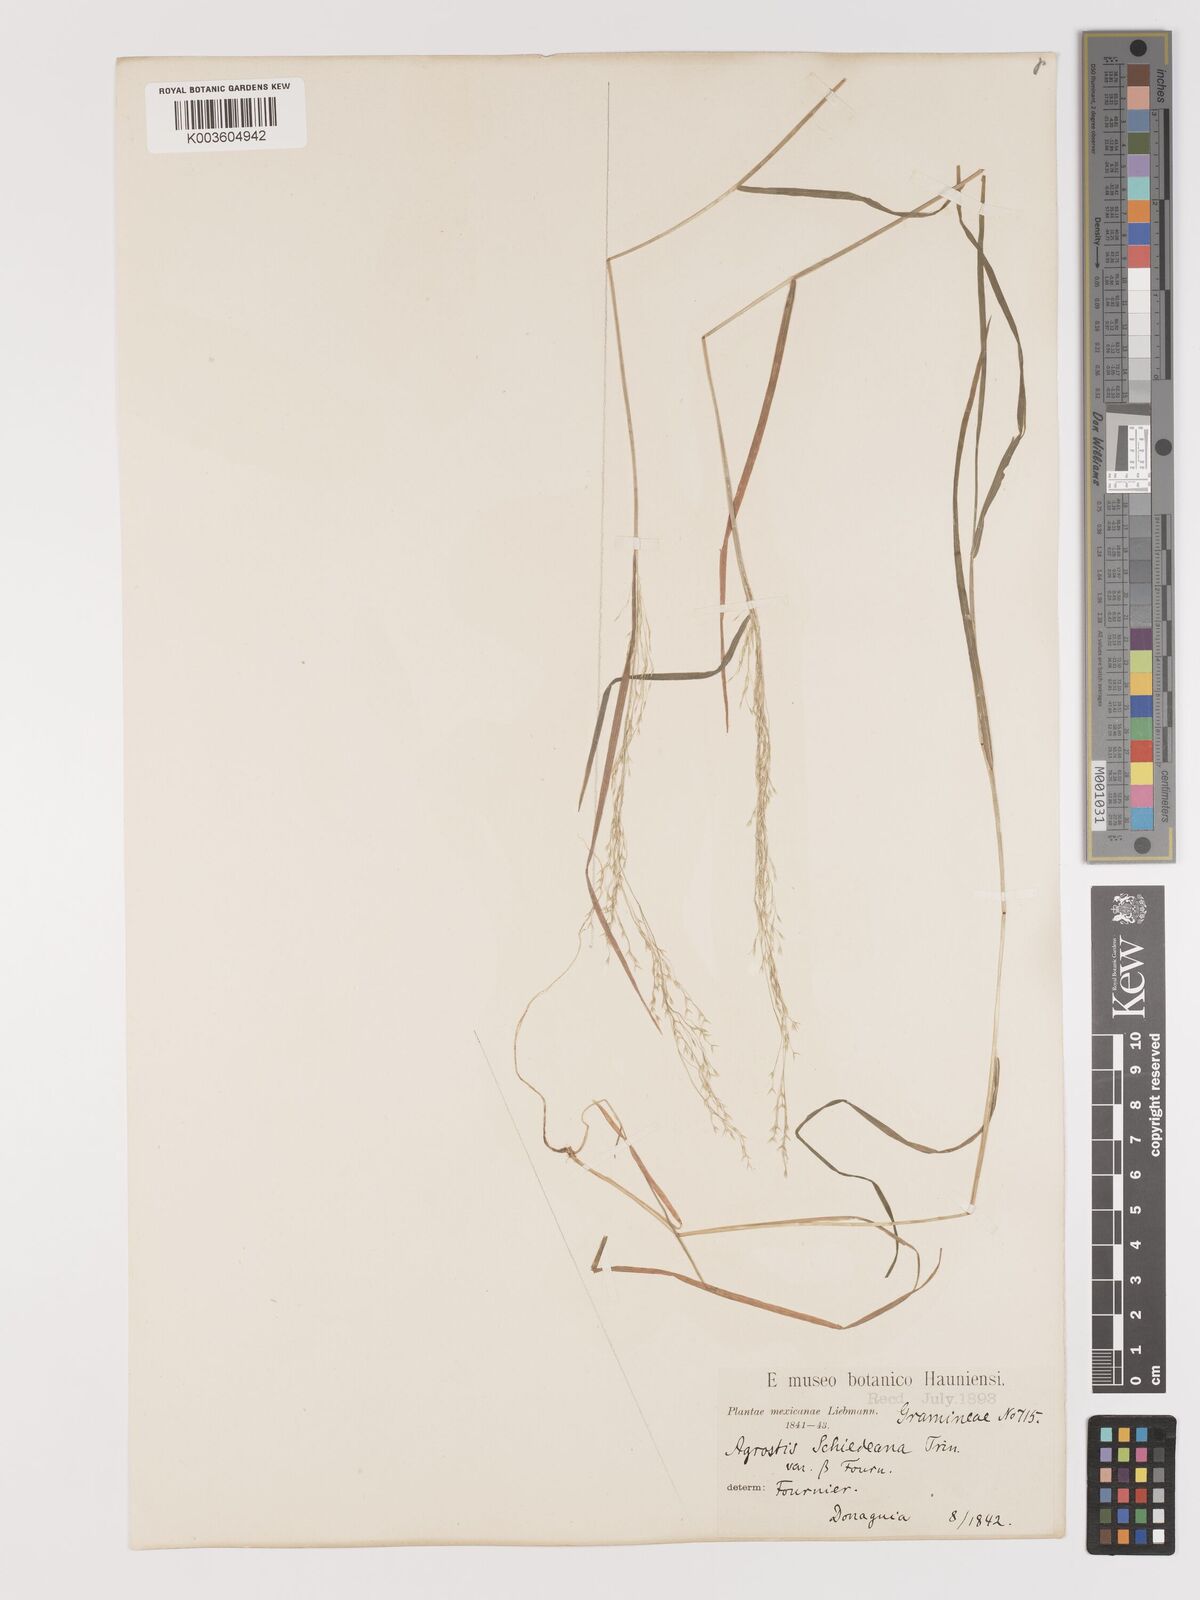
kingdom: Plantae
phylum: Tracheophyta
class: Liliopsida
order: Poales
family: Poaceae
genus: Agrostis
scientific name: Agrostis perennans
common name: Autumn bent
